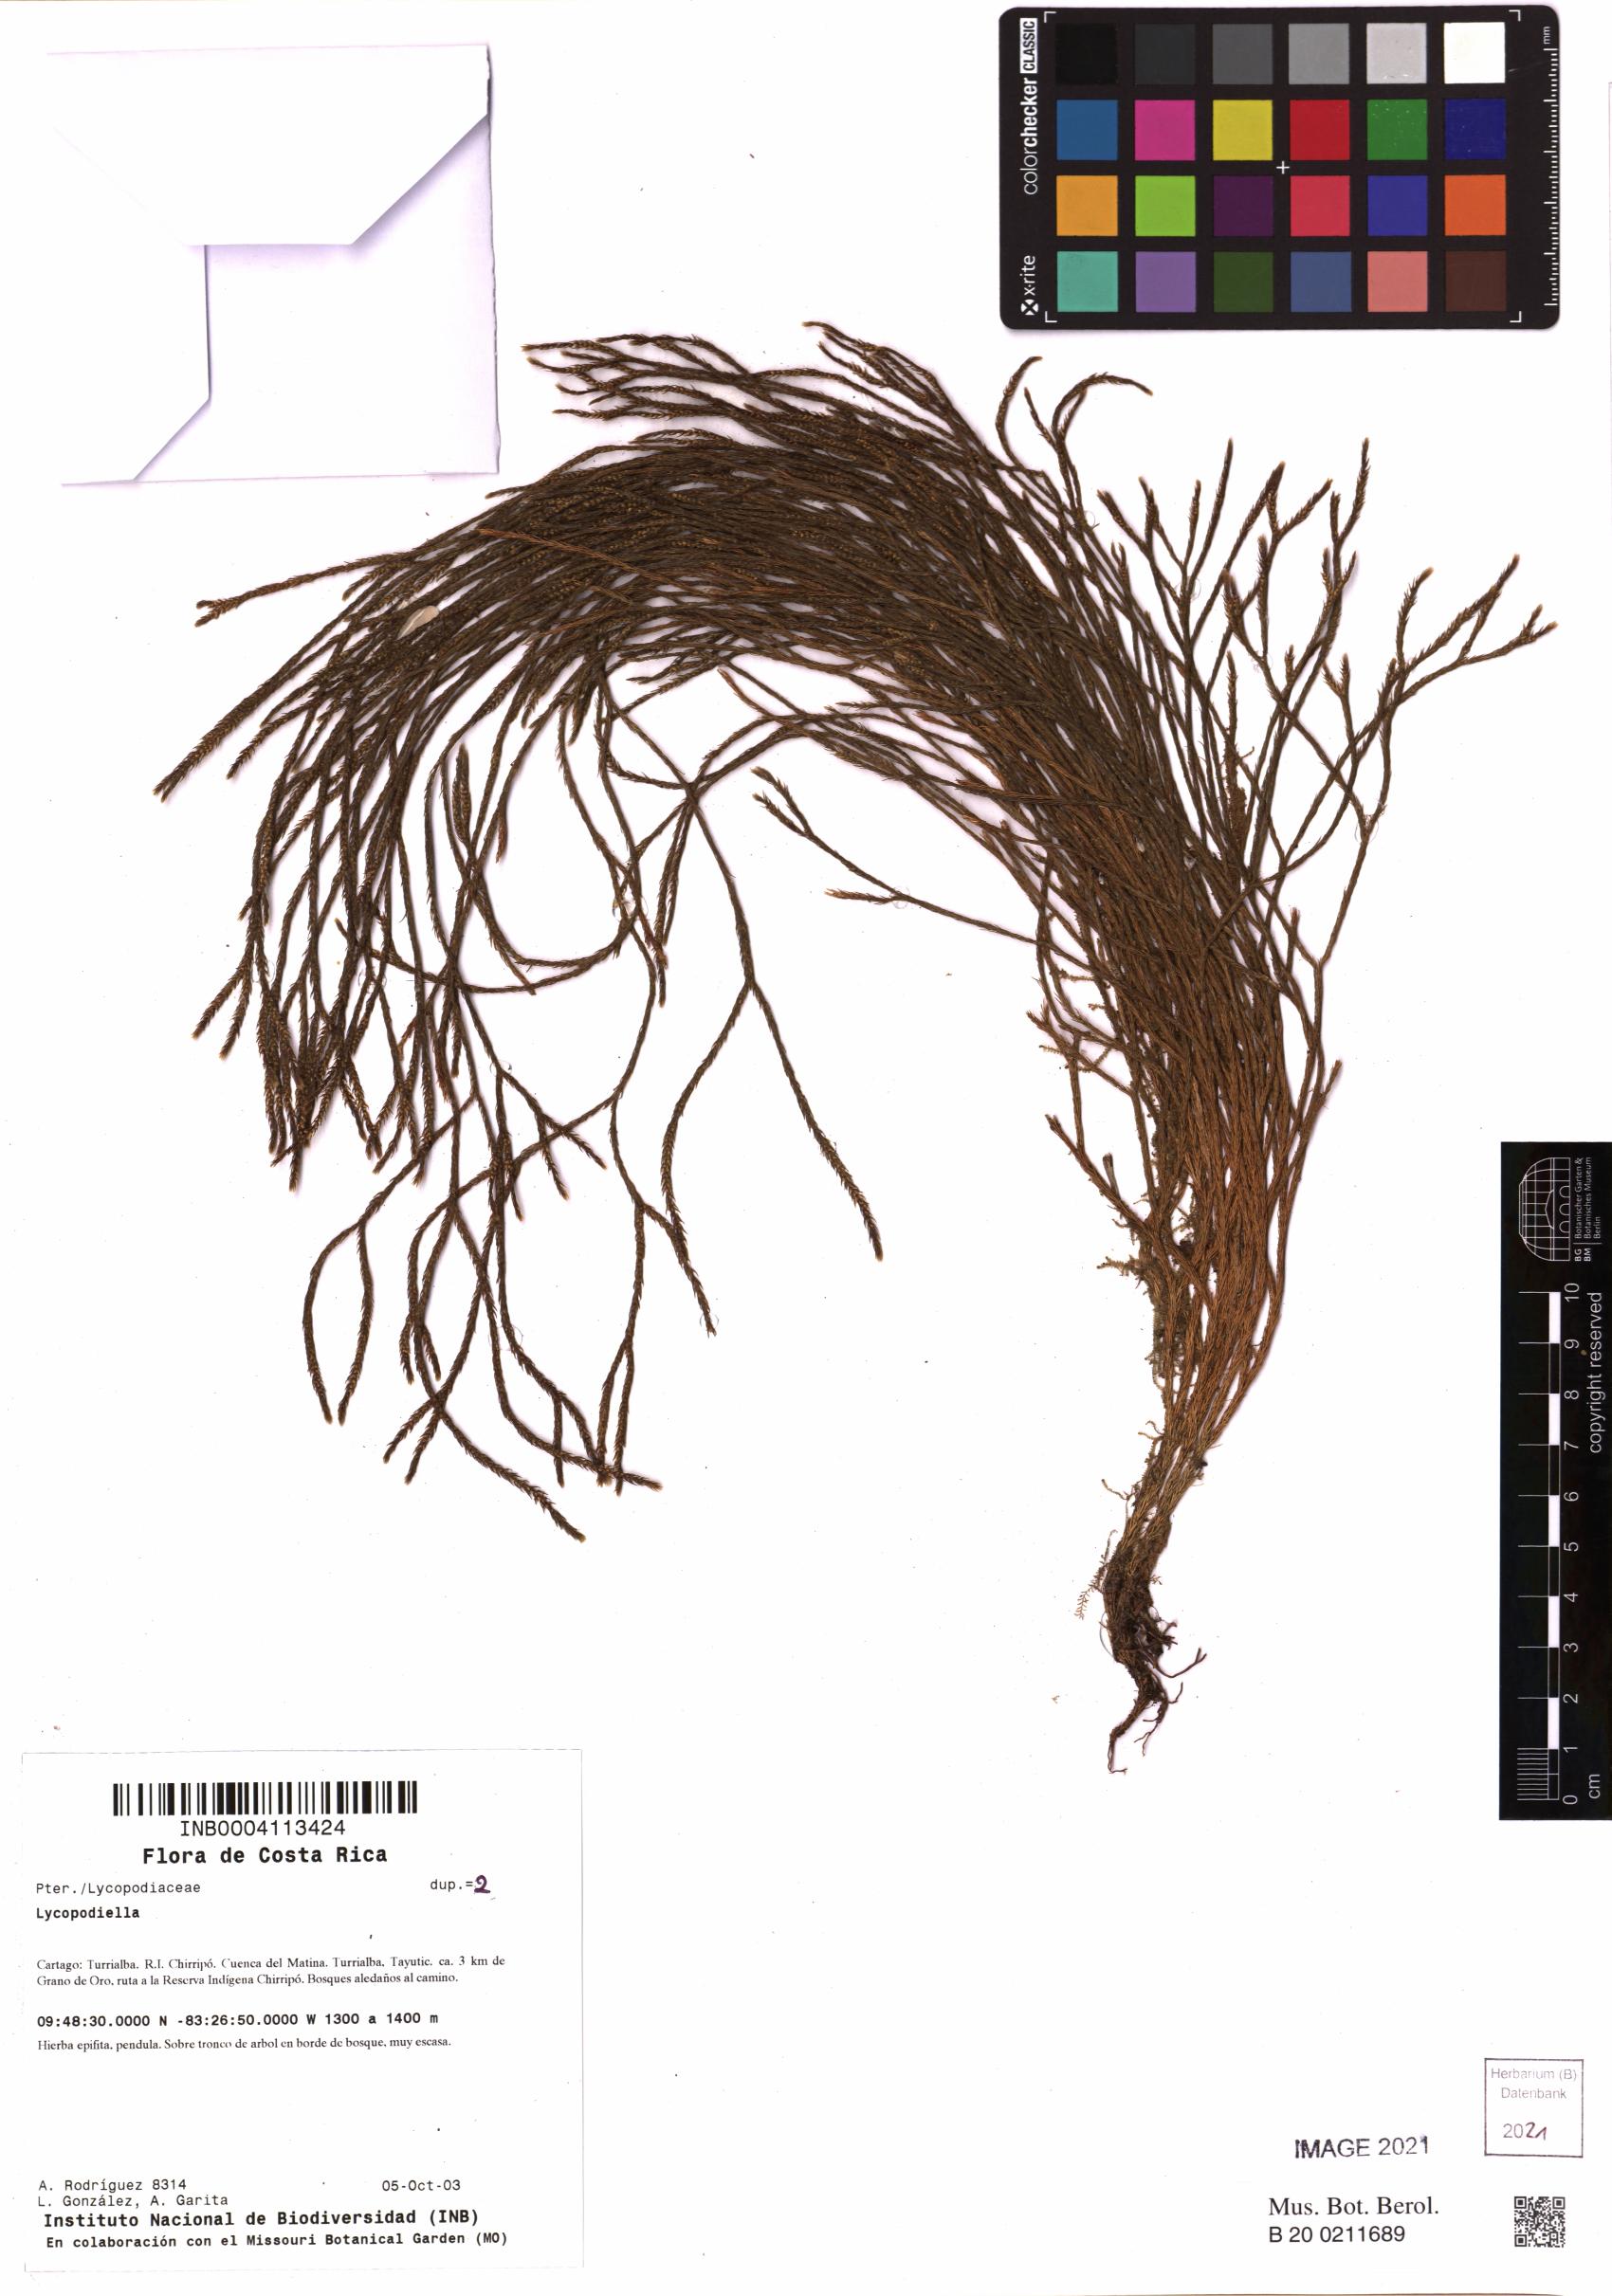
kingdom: Plantae
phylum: Tracheophyta
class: Lycopodiopsida
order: Lycopodiales
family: Lycopodiaceae
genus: Lycopodiella
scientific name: Lycopodiella
